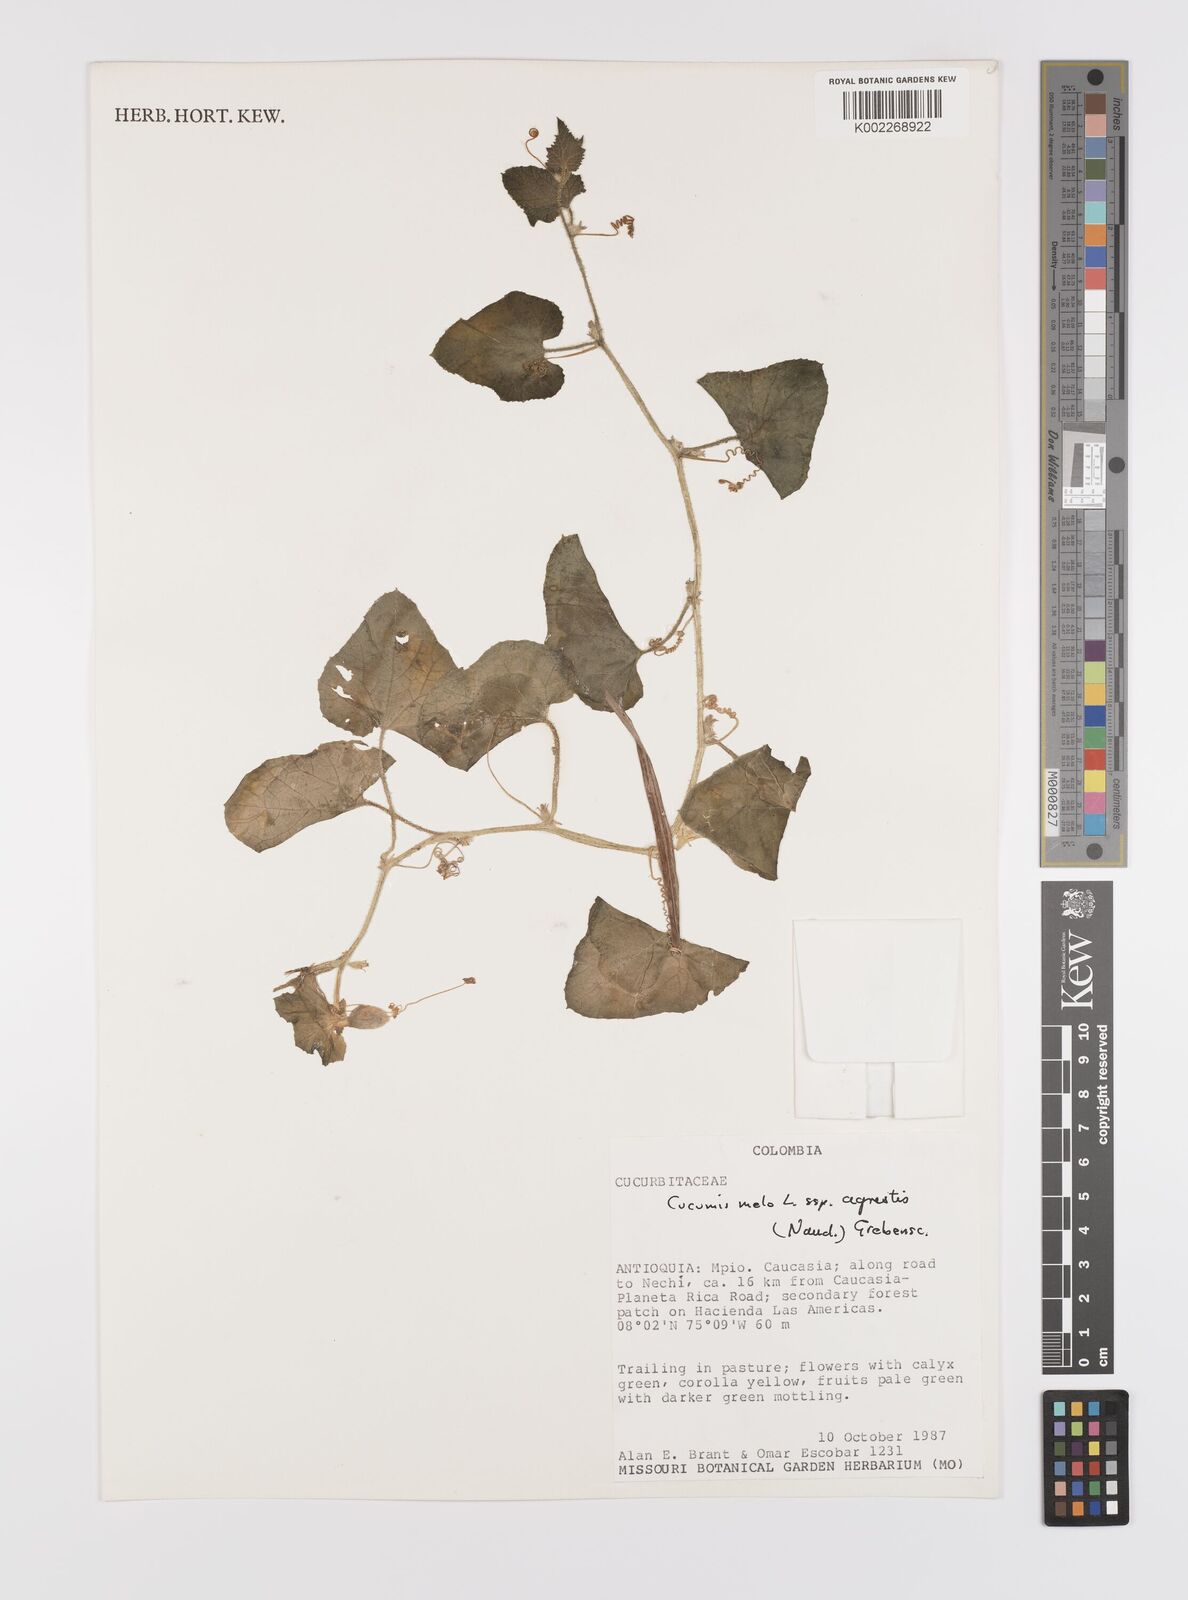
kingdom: Plantae
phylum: Tracheophyta
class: Magnoliopsida
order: Cucurbitales
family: Cucurbitaceae
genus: Cucumis
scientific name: Cucumis melo
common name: Melon
